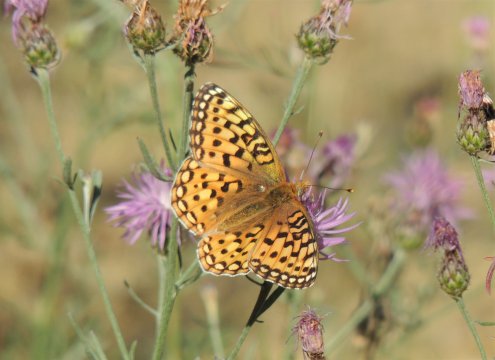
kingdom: Animalia
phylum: Arthropoda
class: Insecta
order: Lepidoptera
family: Nymphalidae
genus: Speyeria
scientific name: Speyeria coronis
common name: Coronis Fritillary
